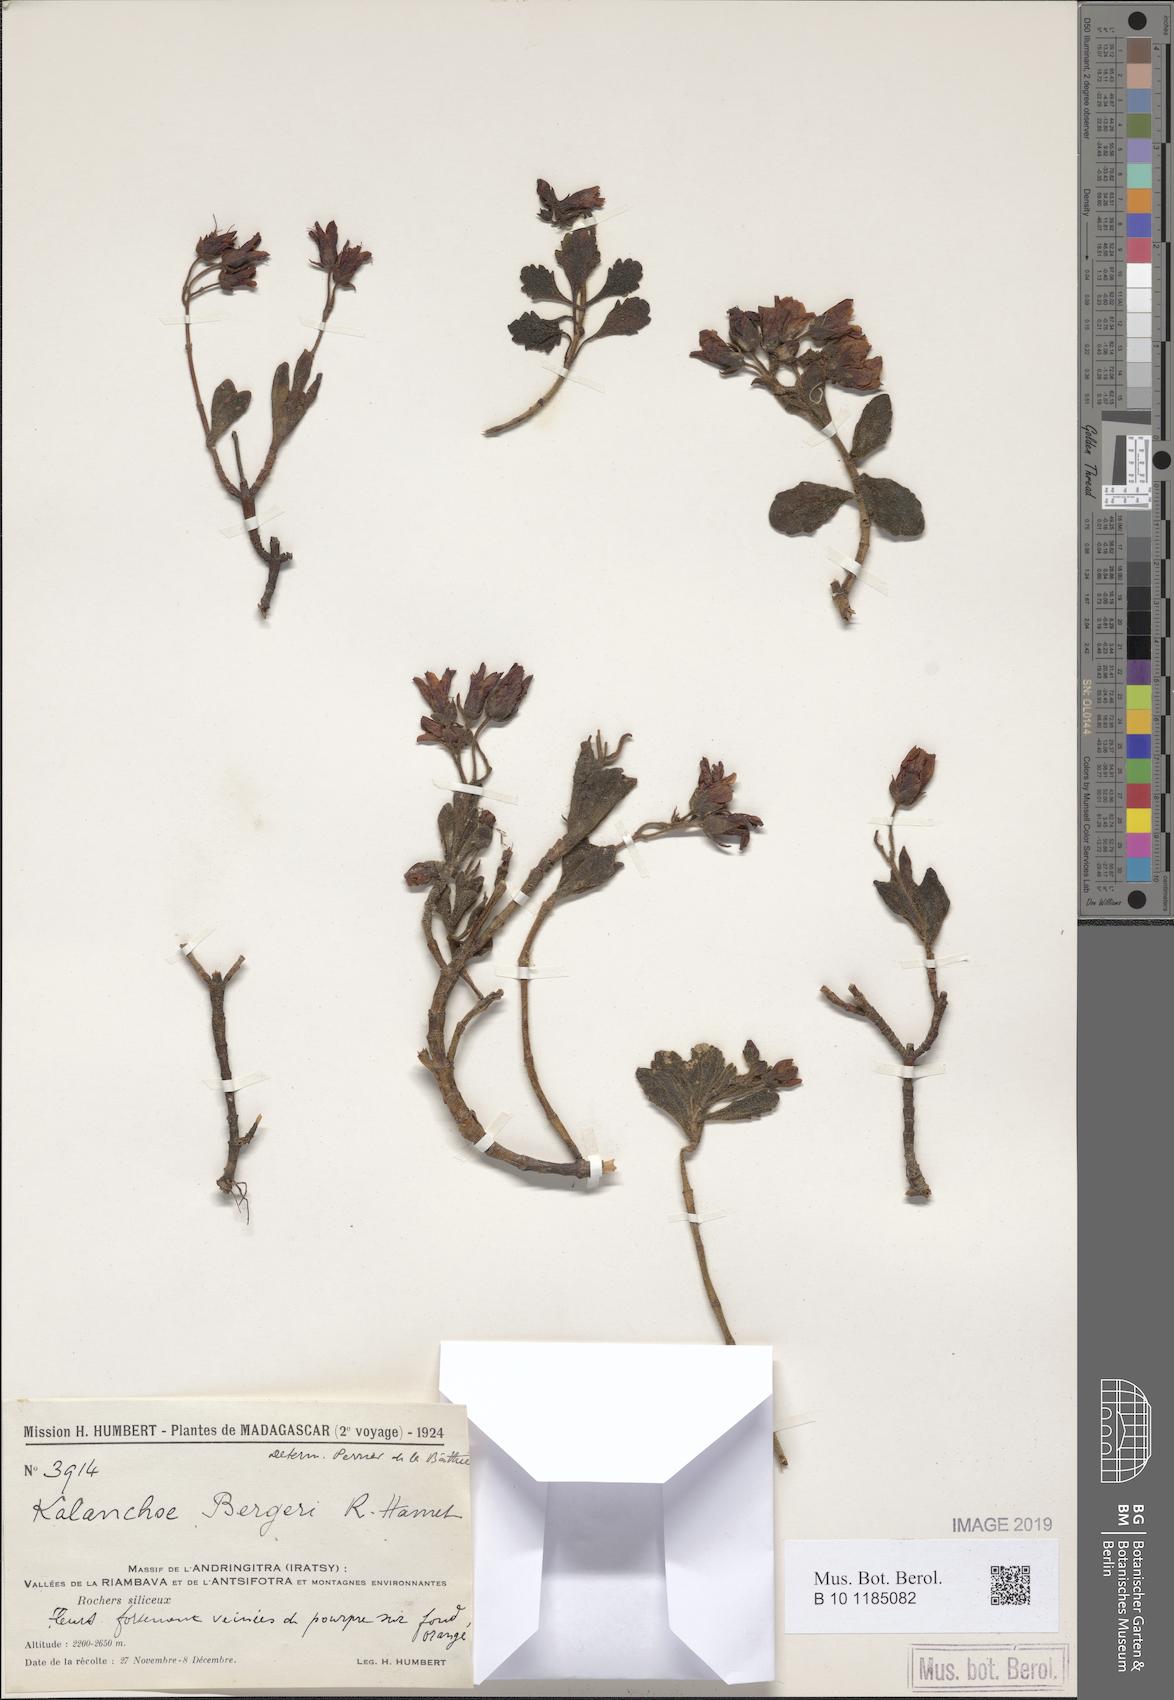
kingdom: Plantae
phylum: Tracheophyta
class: Magnoliopsida
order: Saxifragales
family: Crassulaceae
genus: Kalanchoe
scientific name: Kalanchoe bergeri
